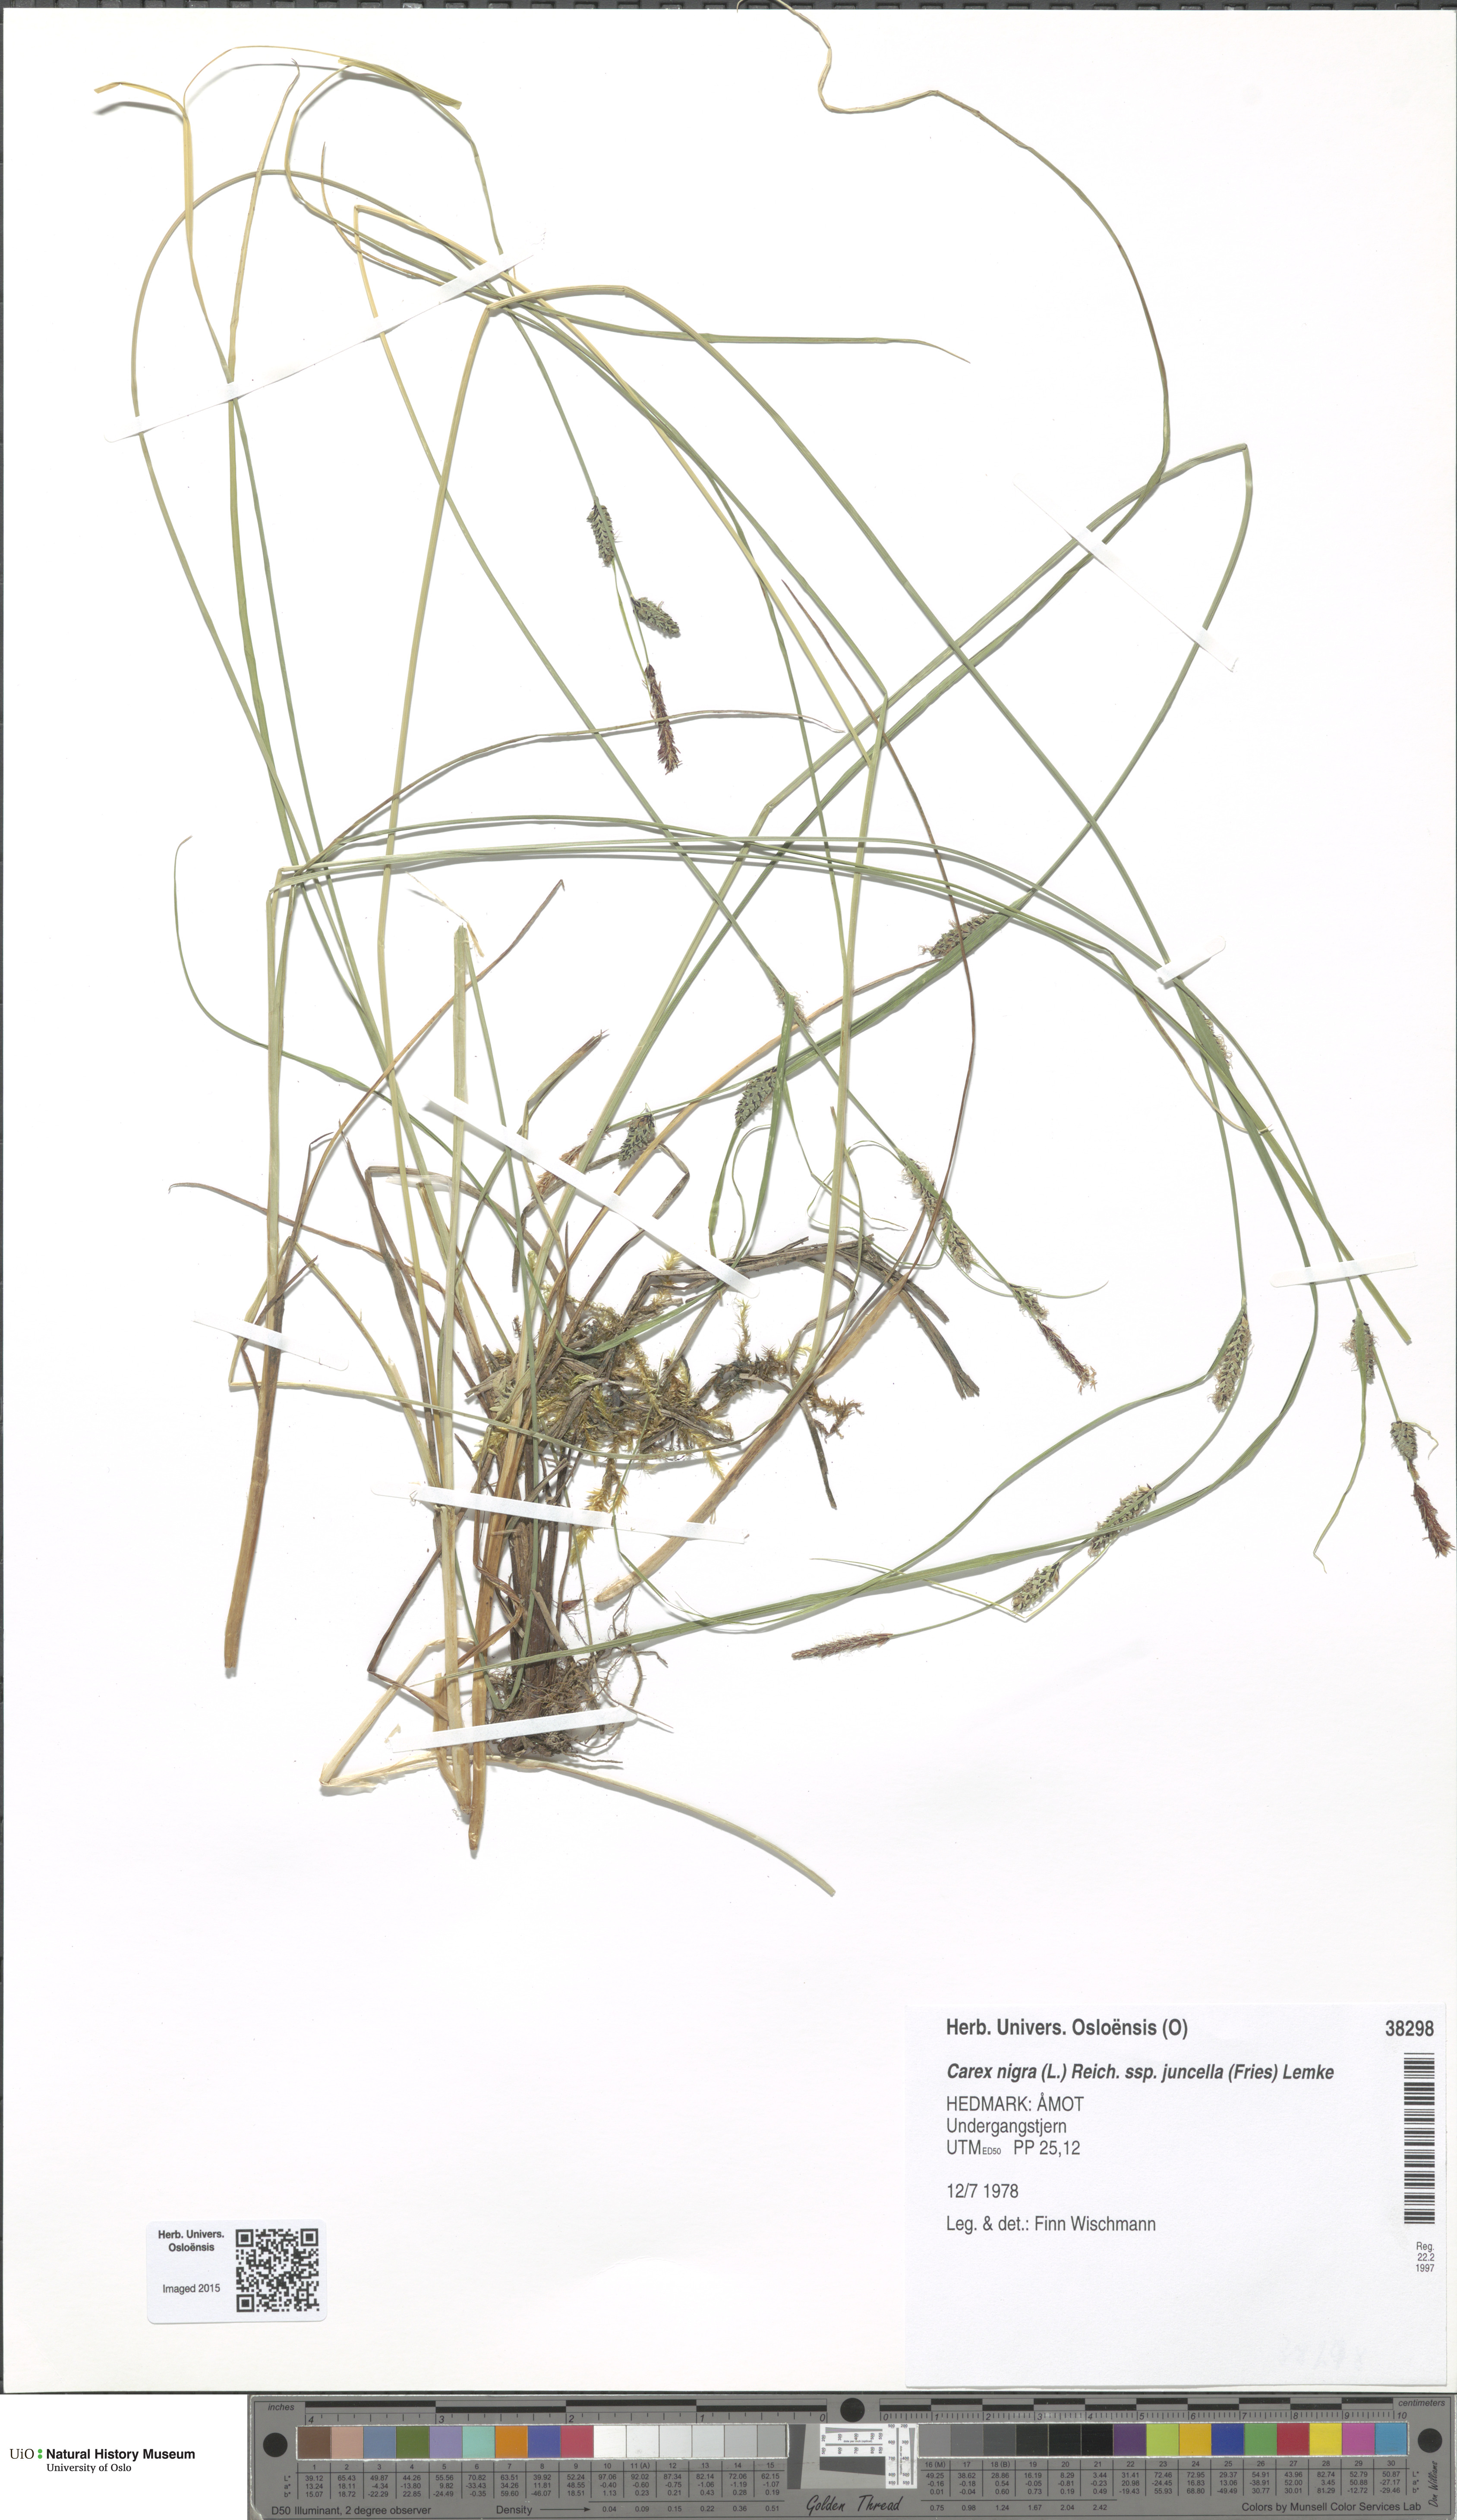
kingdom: Plantae
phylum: Tracheophyta
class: Liliopsida
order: Poales
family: Cyperaceae
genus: Carex
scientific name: Carex nigra
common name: Common sedge
